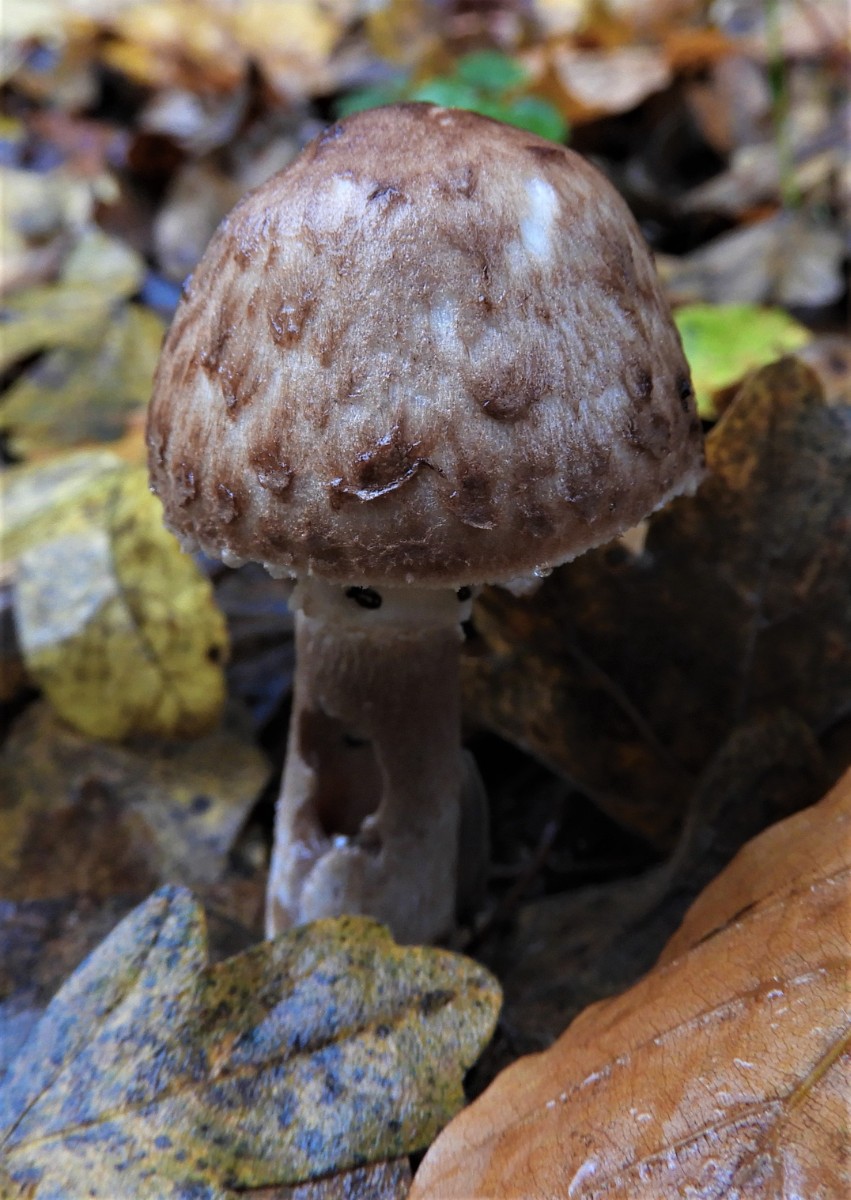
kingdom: Fungi
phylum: Basidiomycota
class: Agaricomycetes
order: Agaricales
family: Agaricaceae
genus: Agaricus
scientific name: Agaricus impudicus
